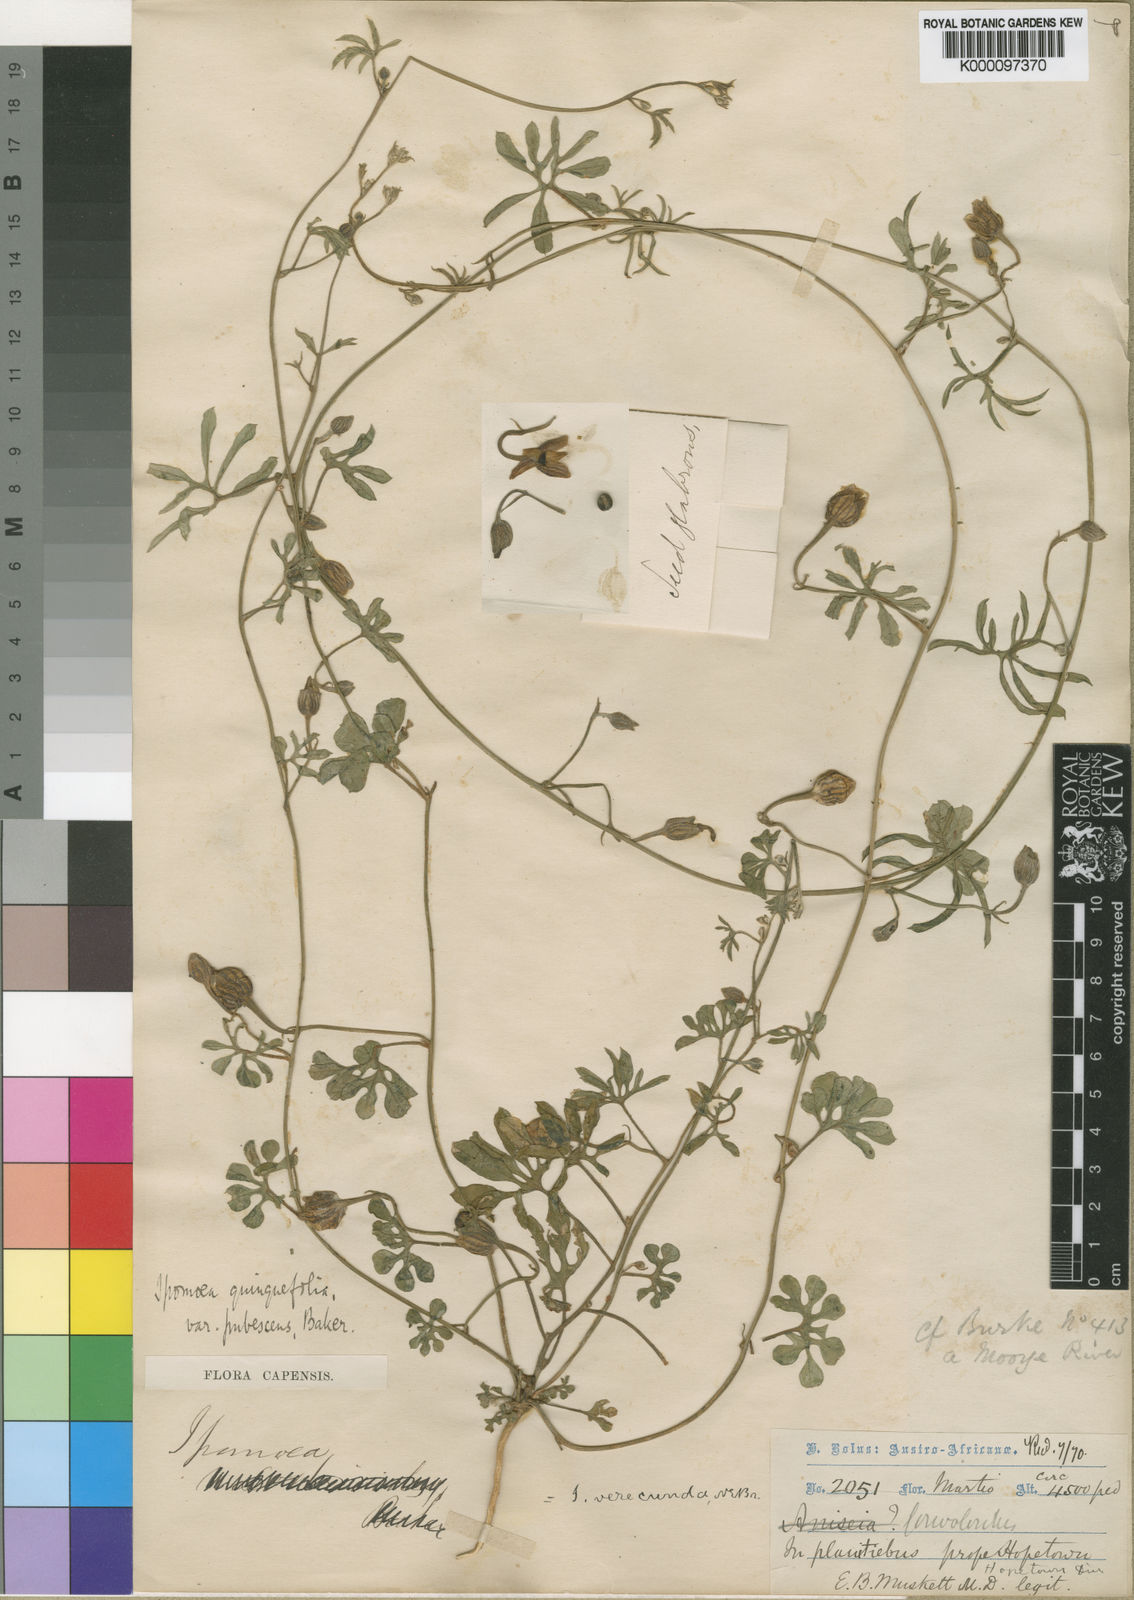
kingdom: Plantae
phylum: Tracheophyta
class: Magnoliopsida
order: Solanales
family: Convolvulaceae
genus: Merremia
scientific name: Merremia verecunda
